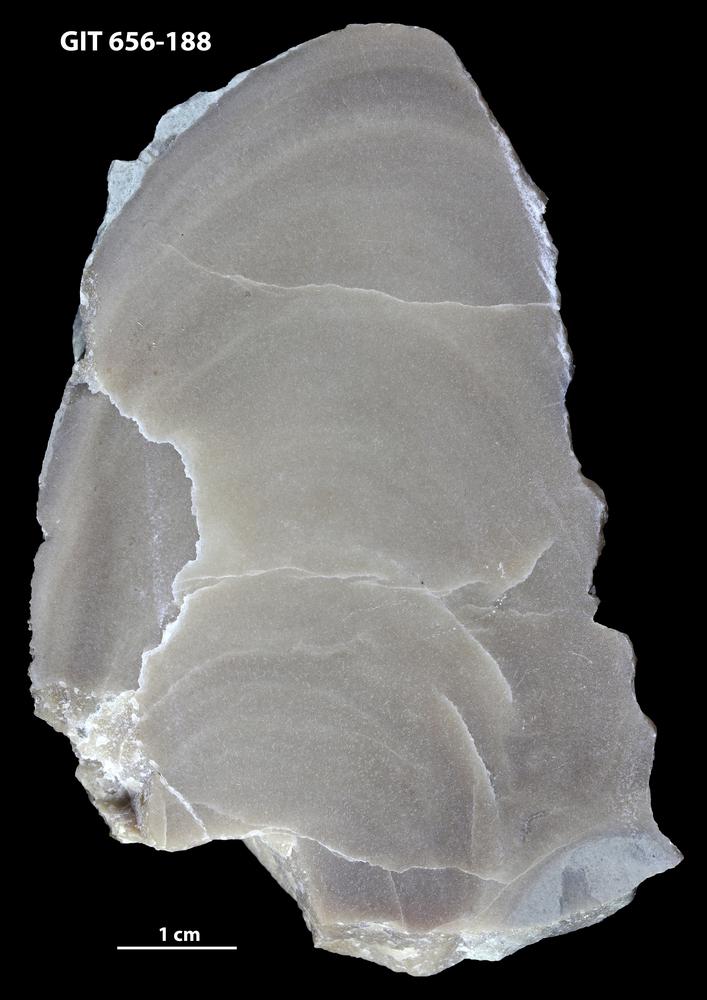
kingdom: Animalia
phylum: Porifera
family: Actinostromatidae
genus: Plectostroma
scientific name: Plectostroma
